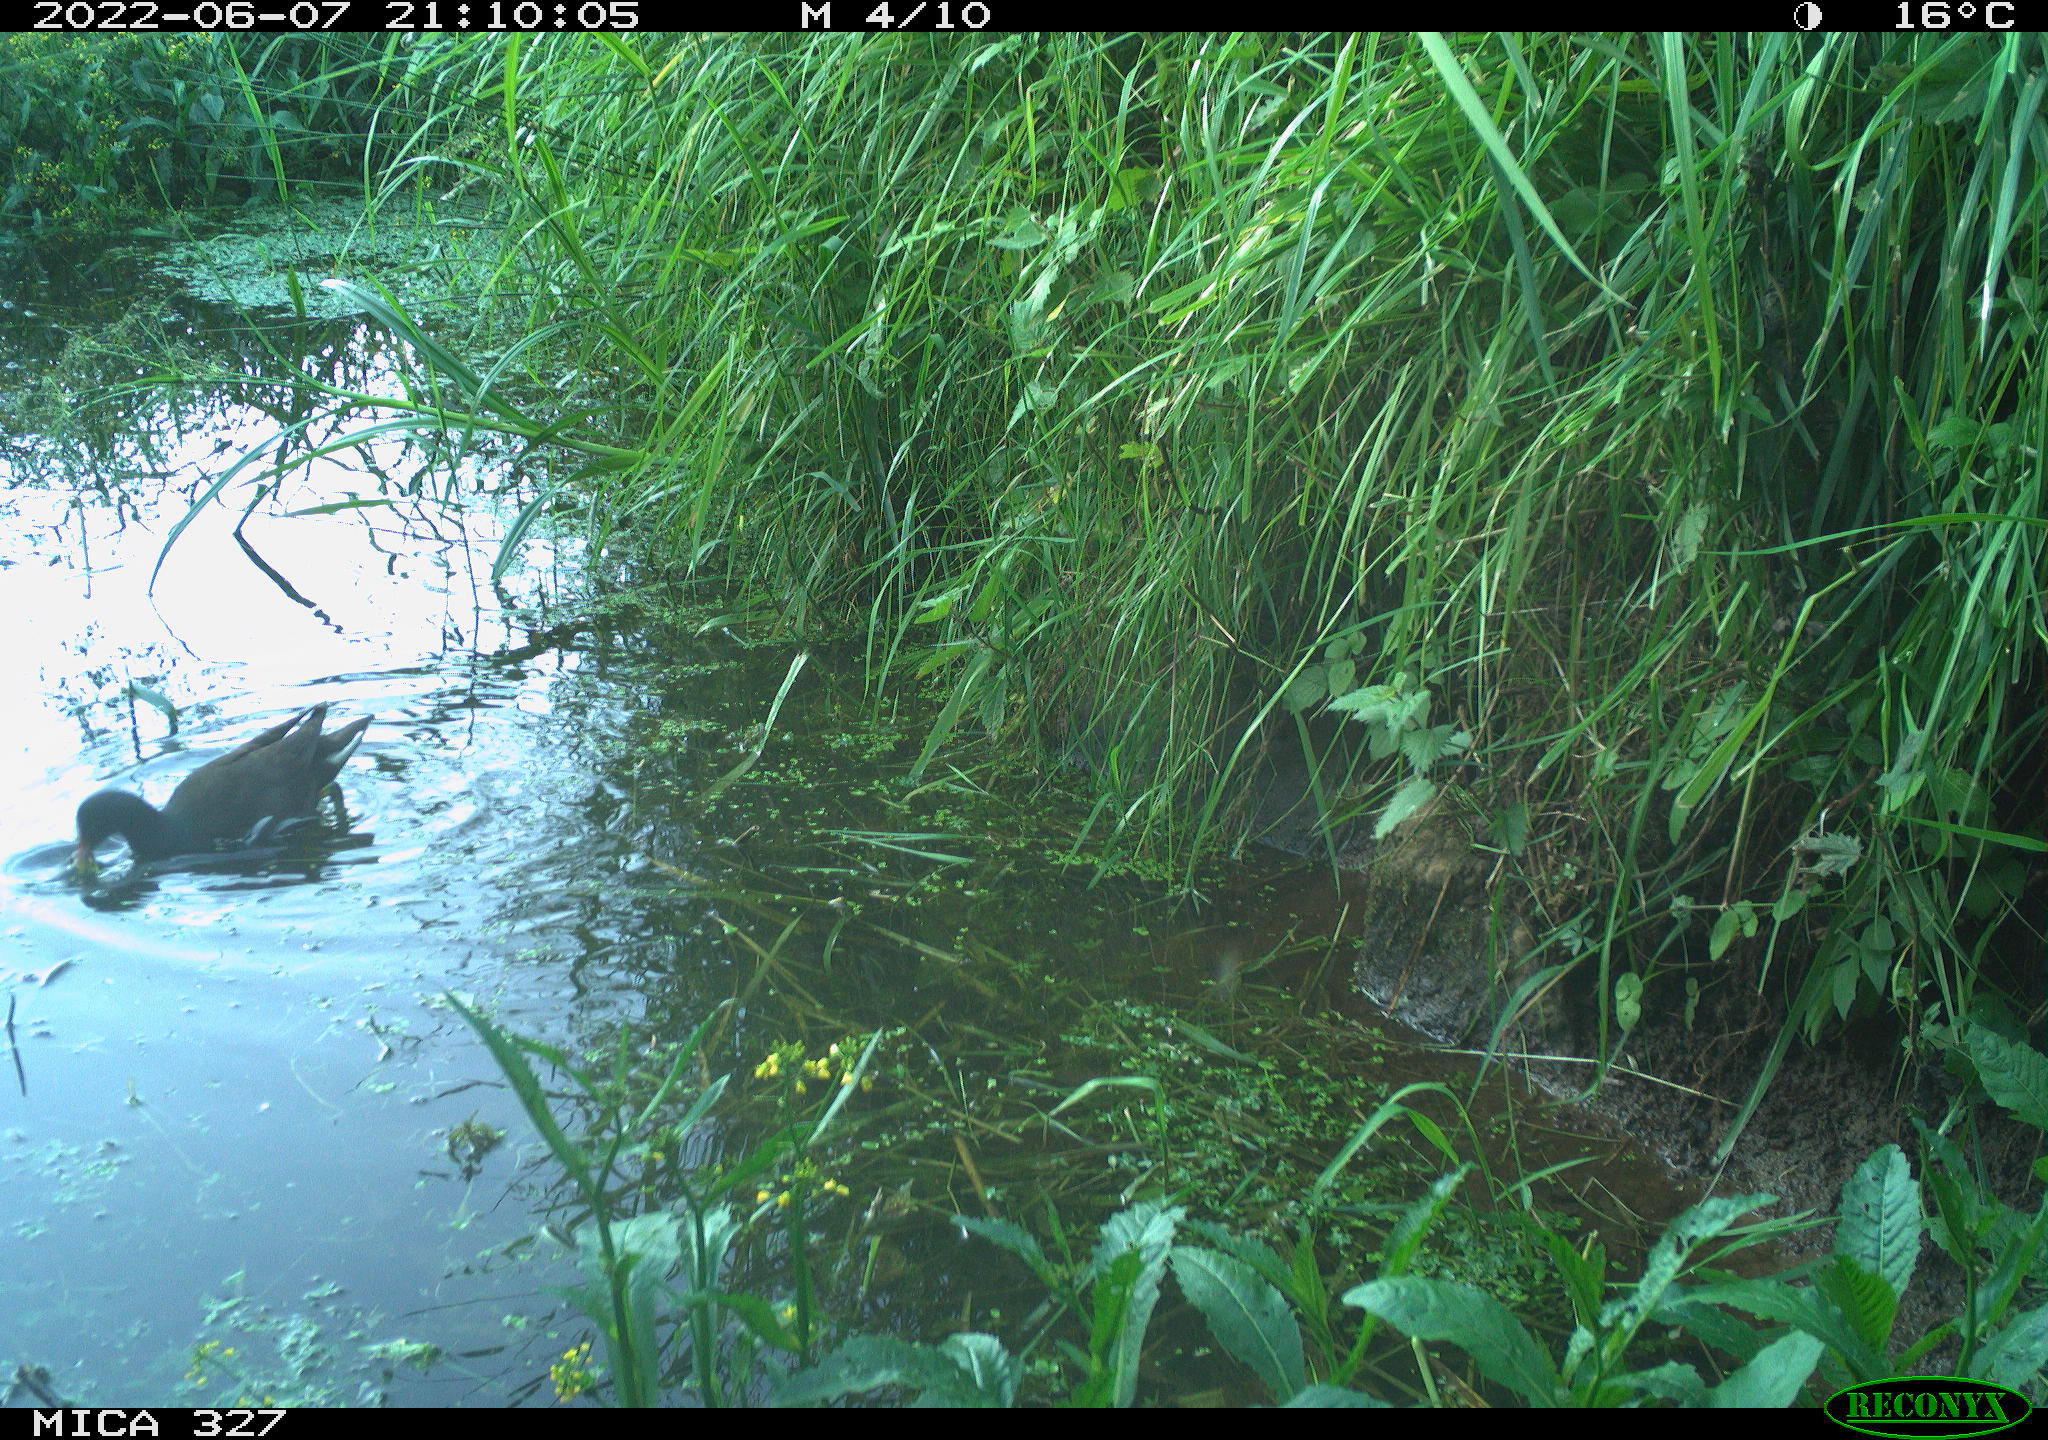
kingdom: Animalia
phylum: Chordata
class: Aves
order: Gruiformes
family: Rallidae
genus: Gallinula
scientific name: Gallinula chloropus
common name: Common moorhen
